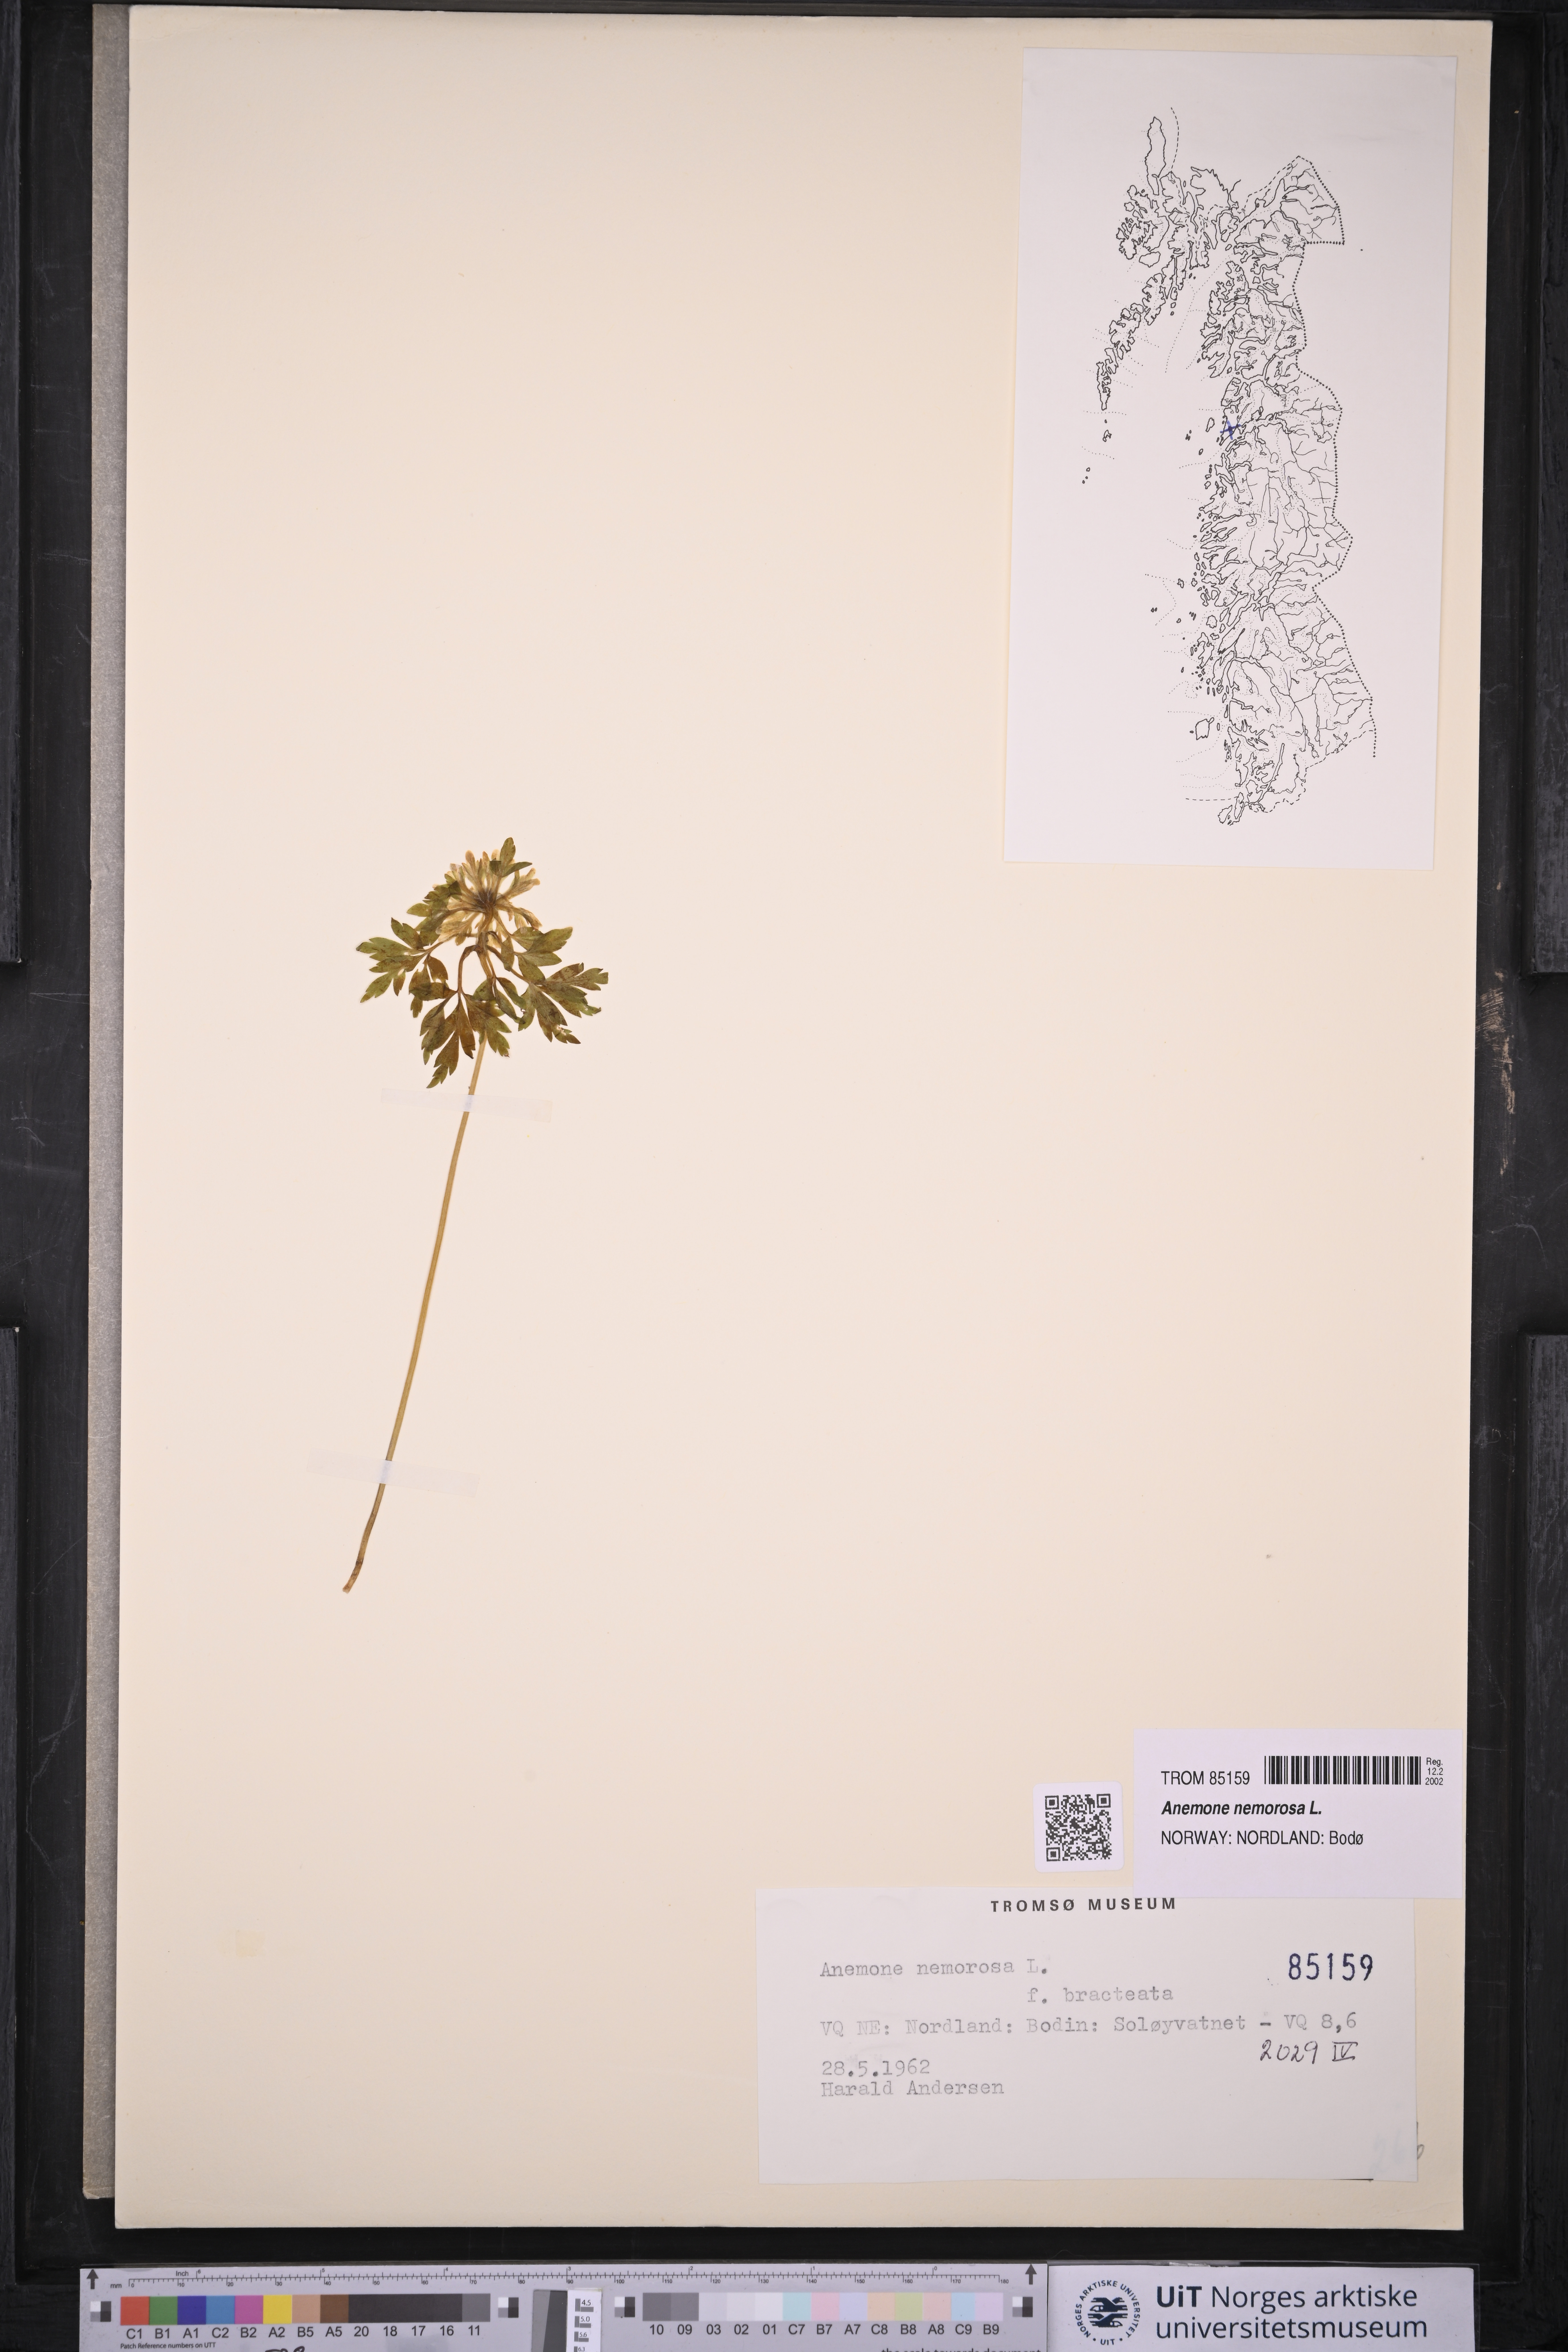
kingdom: Plantae
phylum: Tracheophyta
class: Magnoliopsida
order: Ranunculales
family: Ranunculaceae
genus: Anemone
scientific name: Anemone nemorosa
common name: Wood anemone
